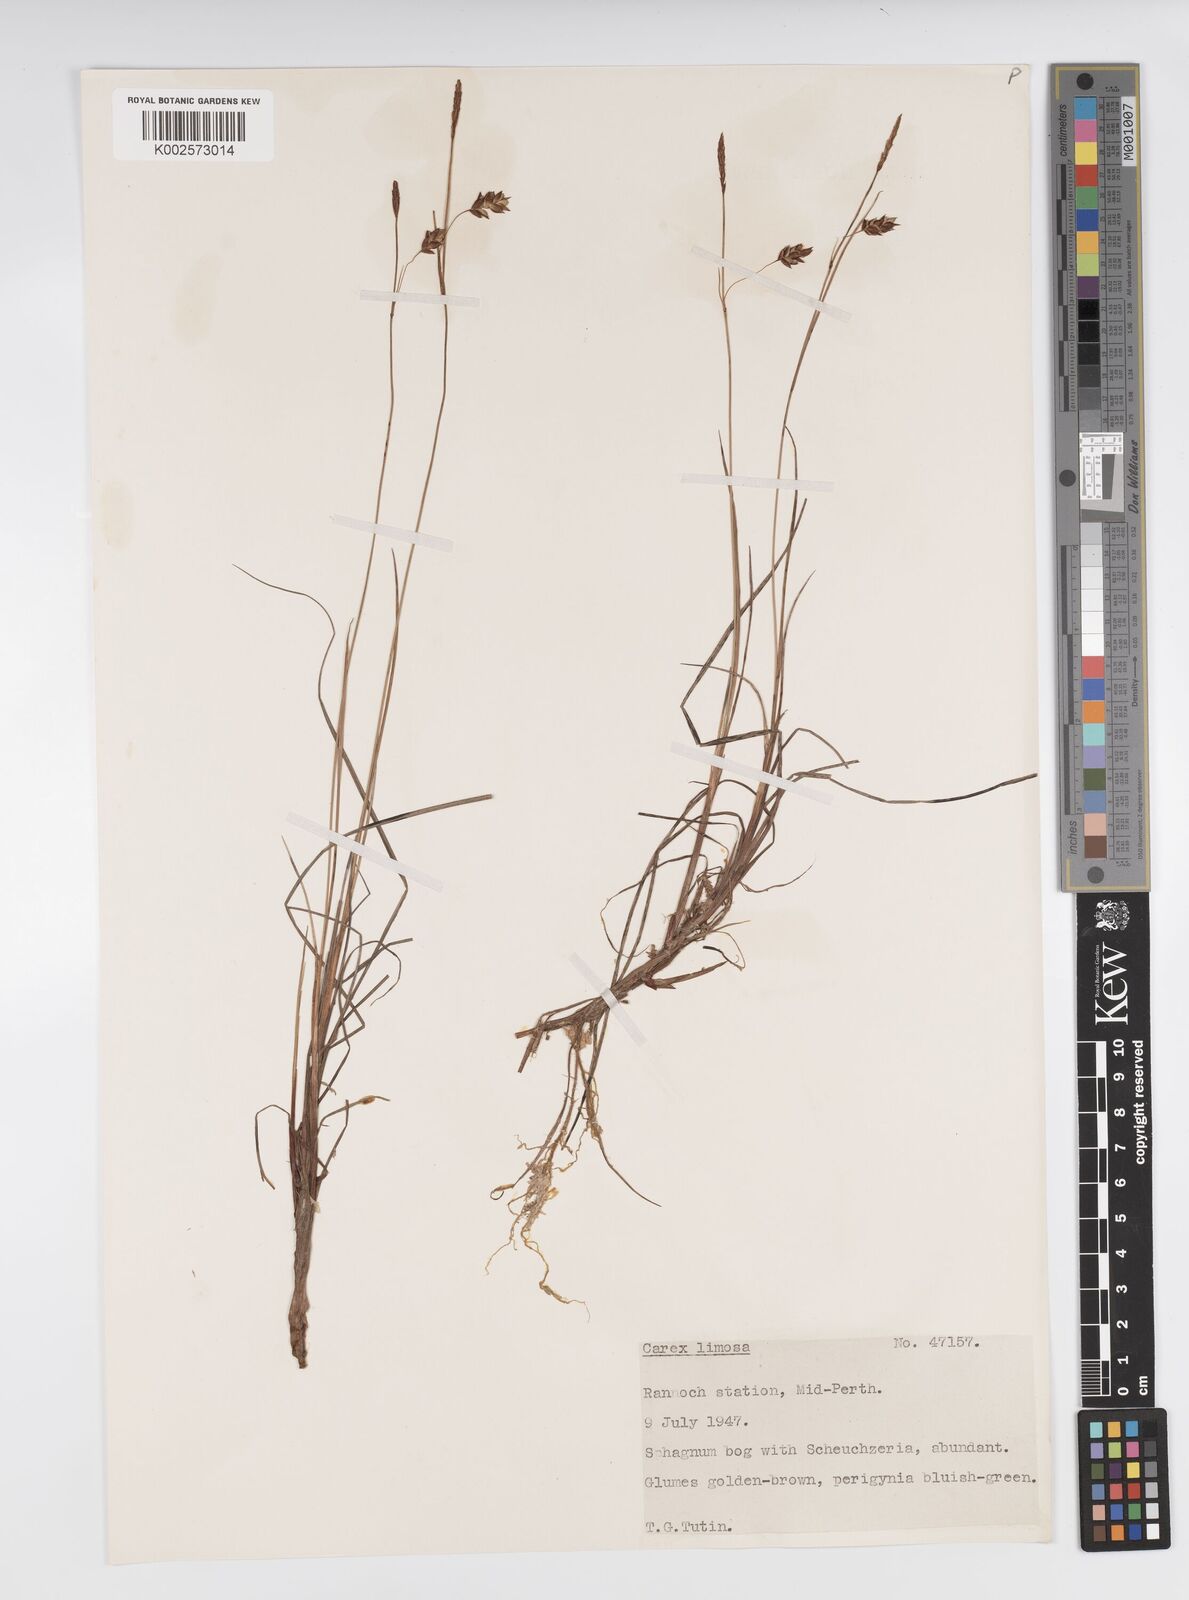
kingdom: Plantae
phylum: Tracheophyta
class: Liliopsida
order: Poales
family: Cyperaceae
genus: Carex
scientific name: Carex limosa
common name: Bog sedge
